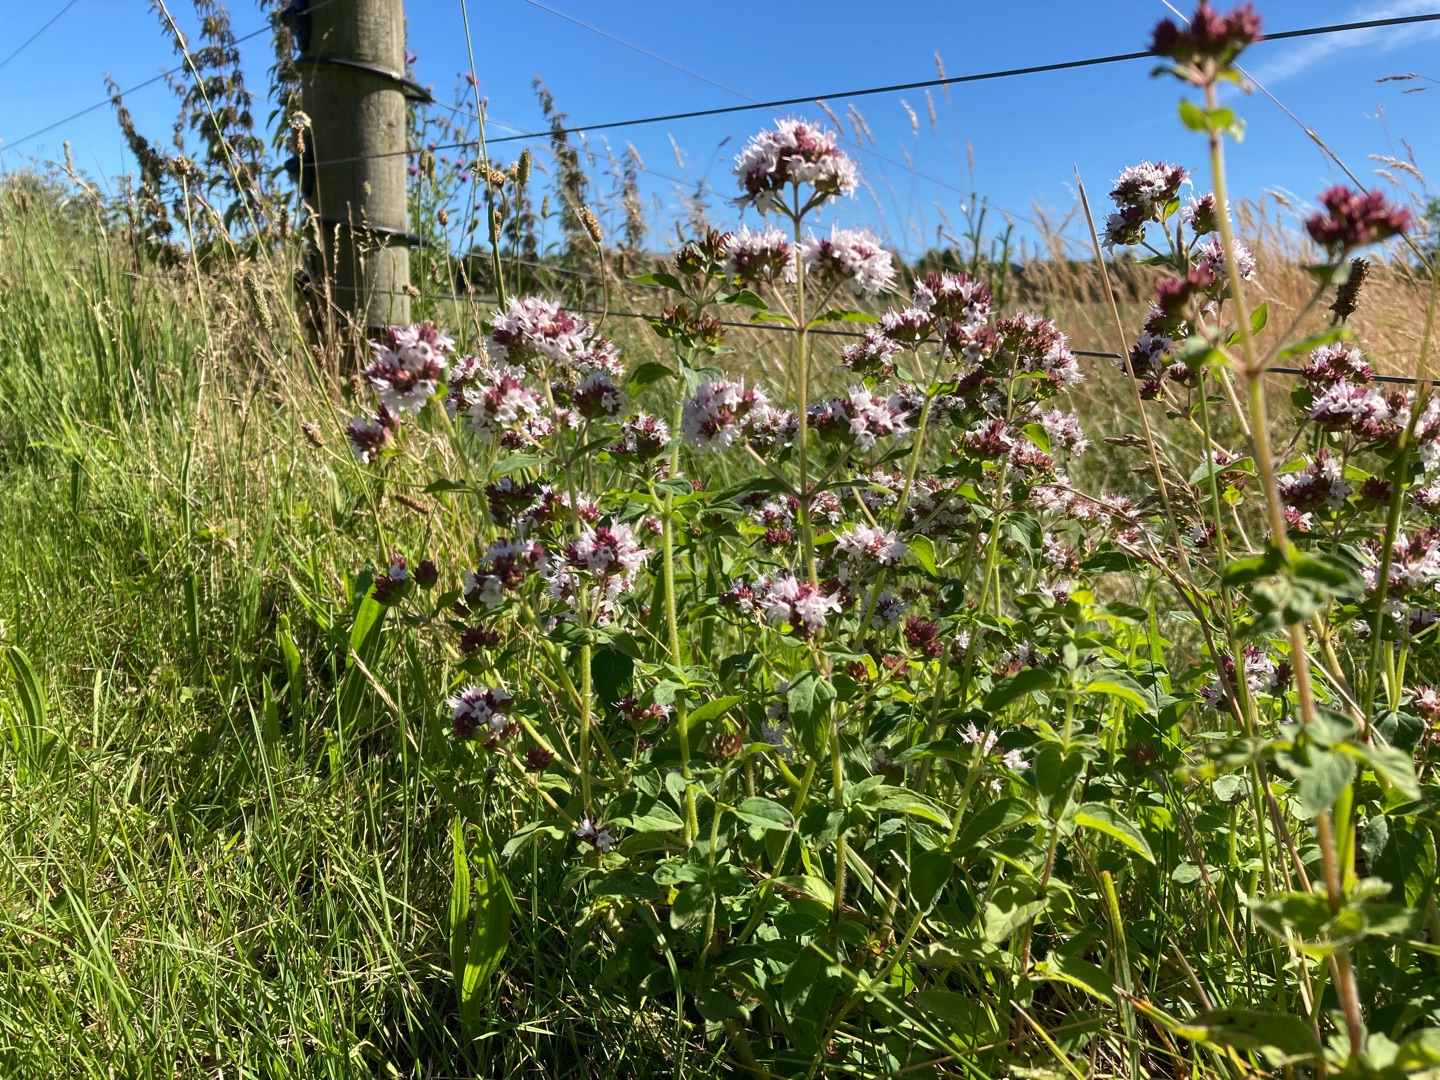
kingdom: Plantae
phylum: Tracheophyta
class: Magnoliopsida
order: Lamiales
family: Lamiaceae
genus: Origanum
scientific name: Origanum vulgare
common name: Merian
